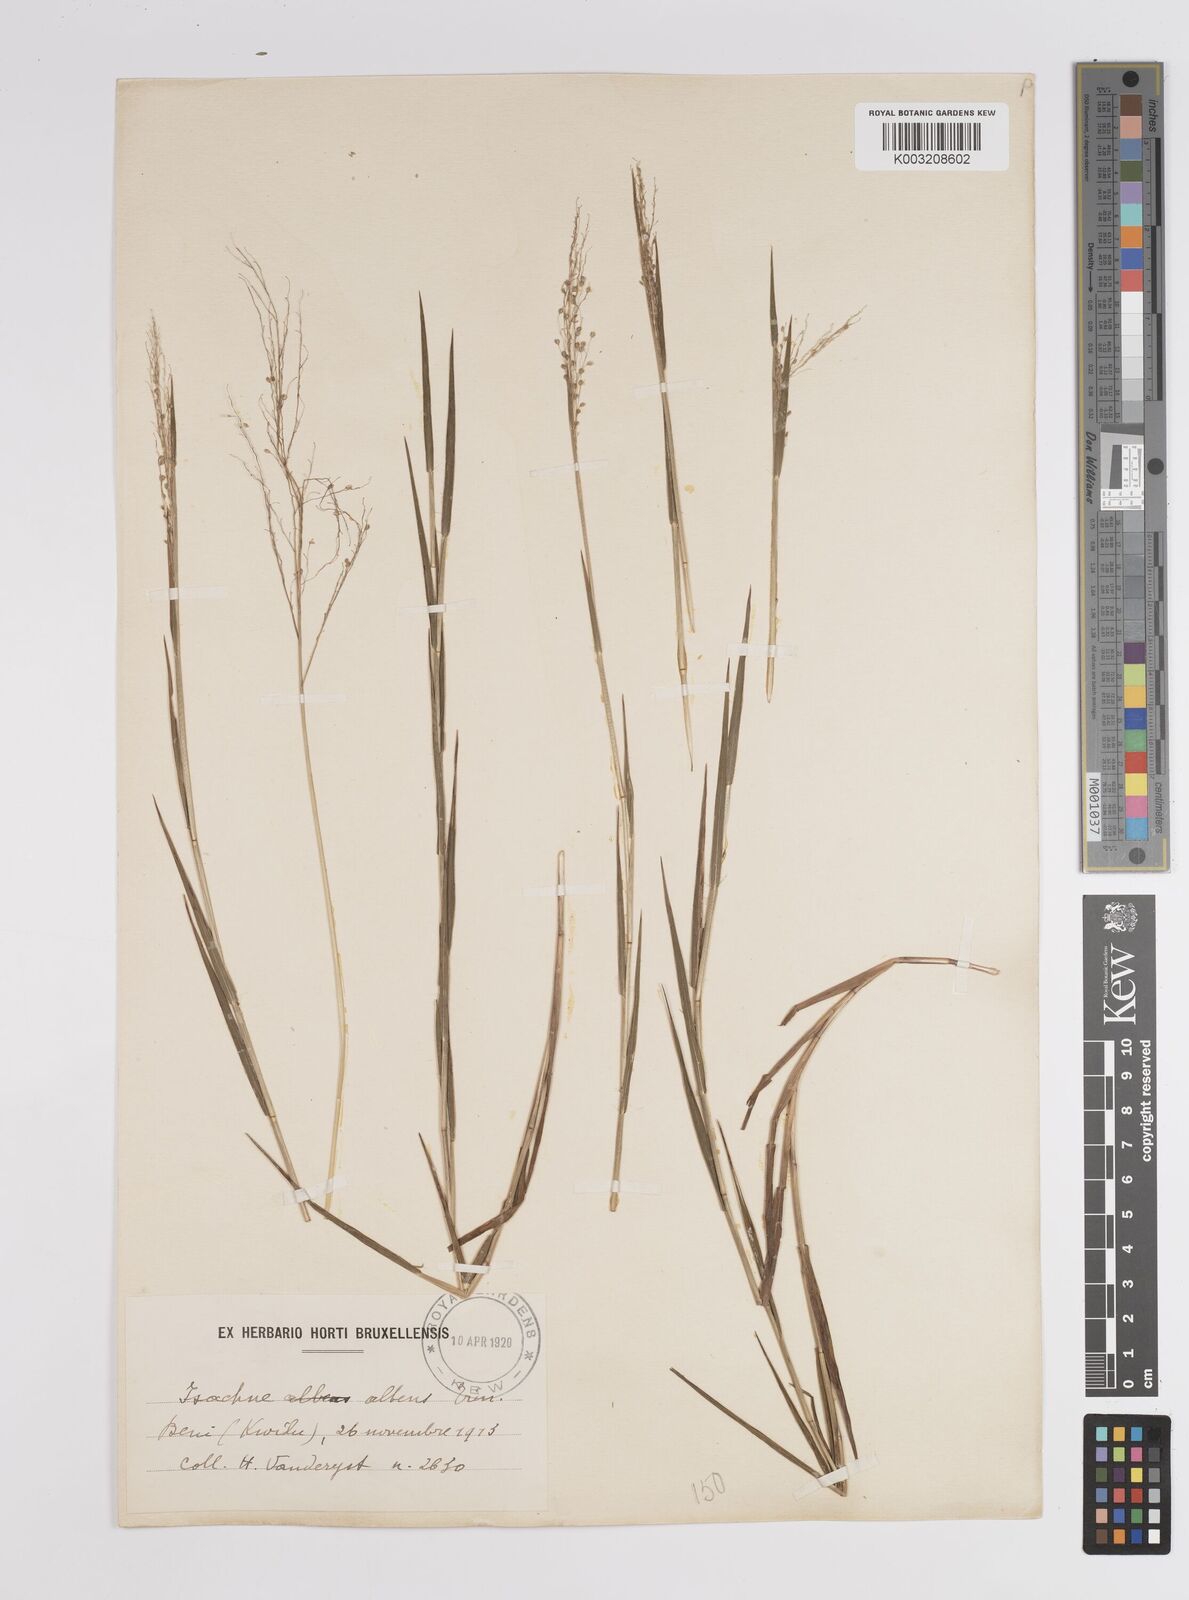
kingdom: Plantae
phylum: Tracheophyta
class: Liliopsida
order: Poales
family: Poaceae
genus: Trichanthecium
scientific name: Trichanthecium nervatum
